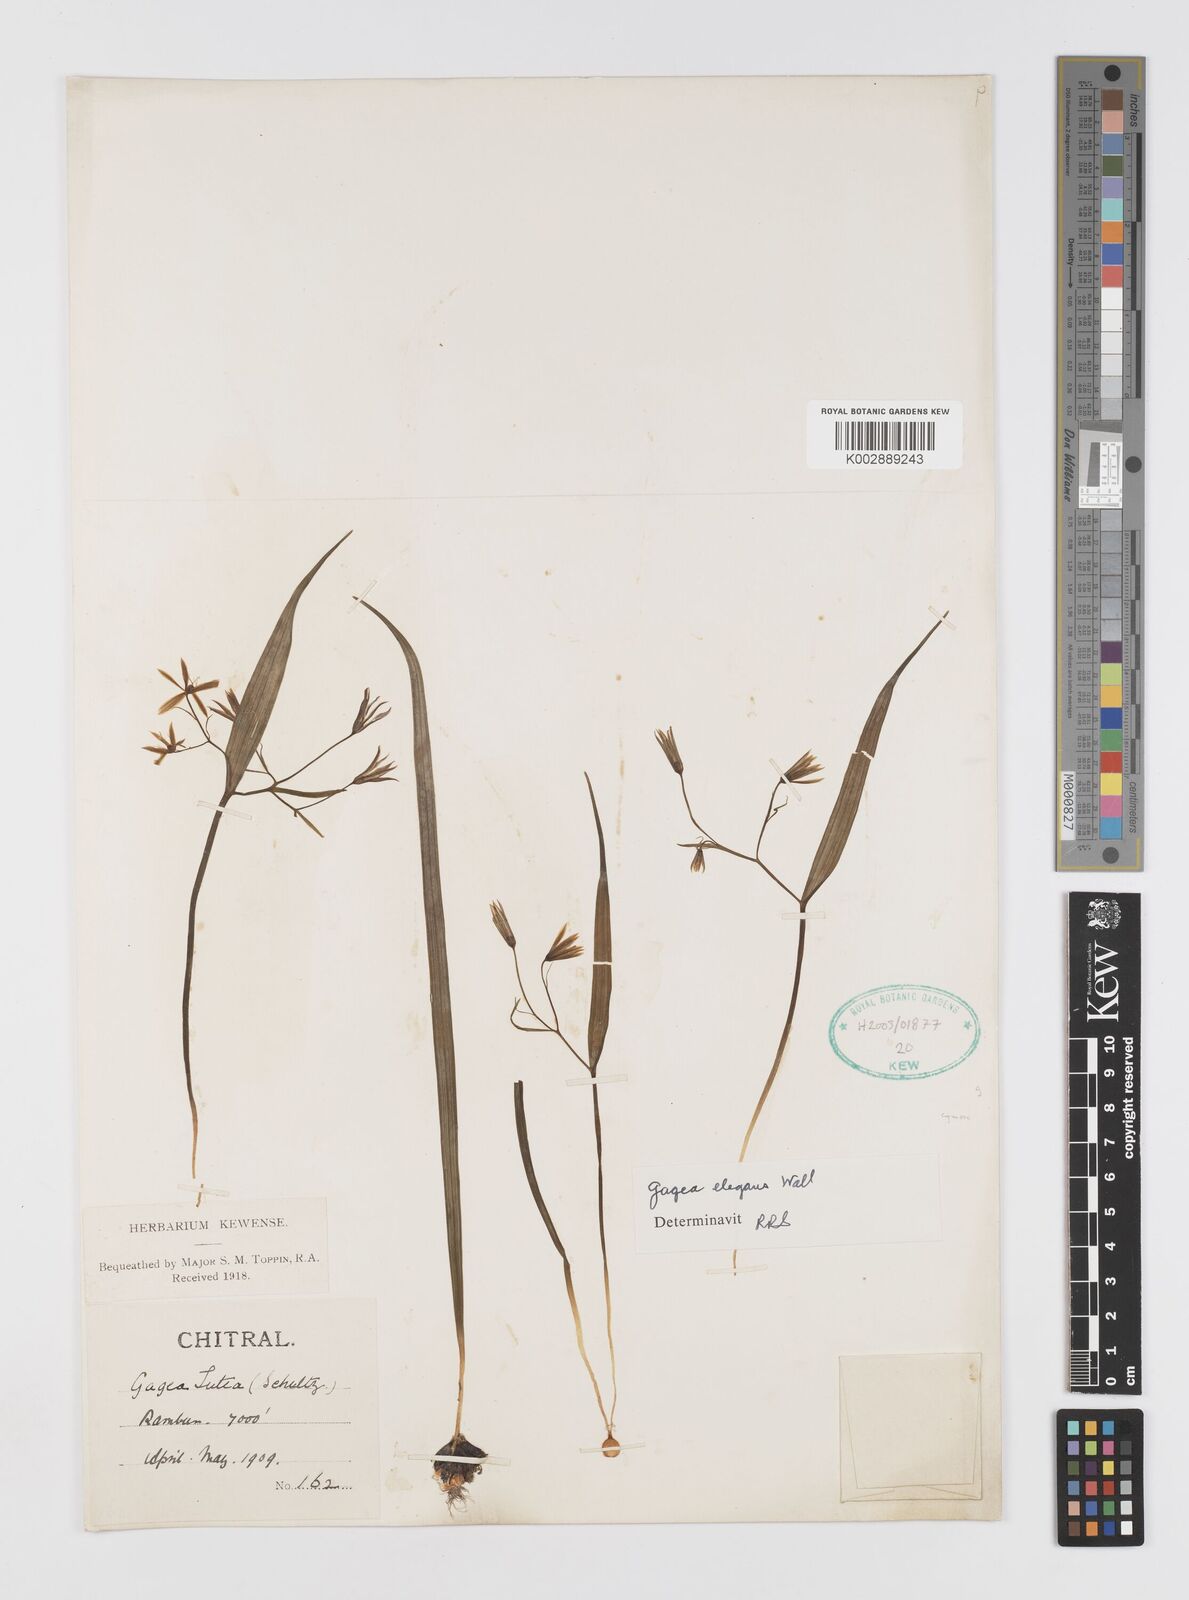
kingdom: Plantae
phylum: Tracheophyta
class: Liliopsida
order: Liliales
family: Liliaceae
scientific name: Liliaceae
